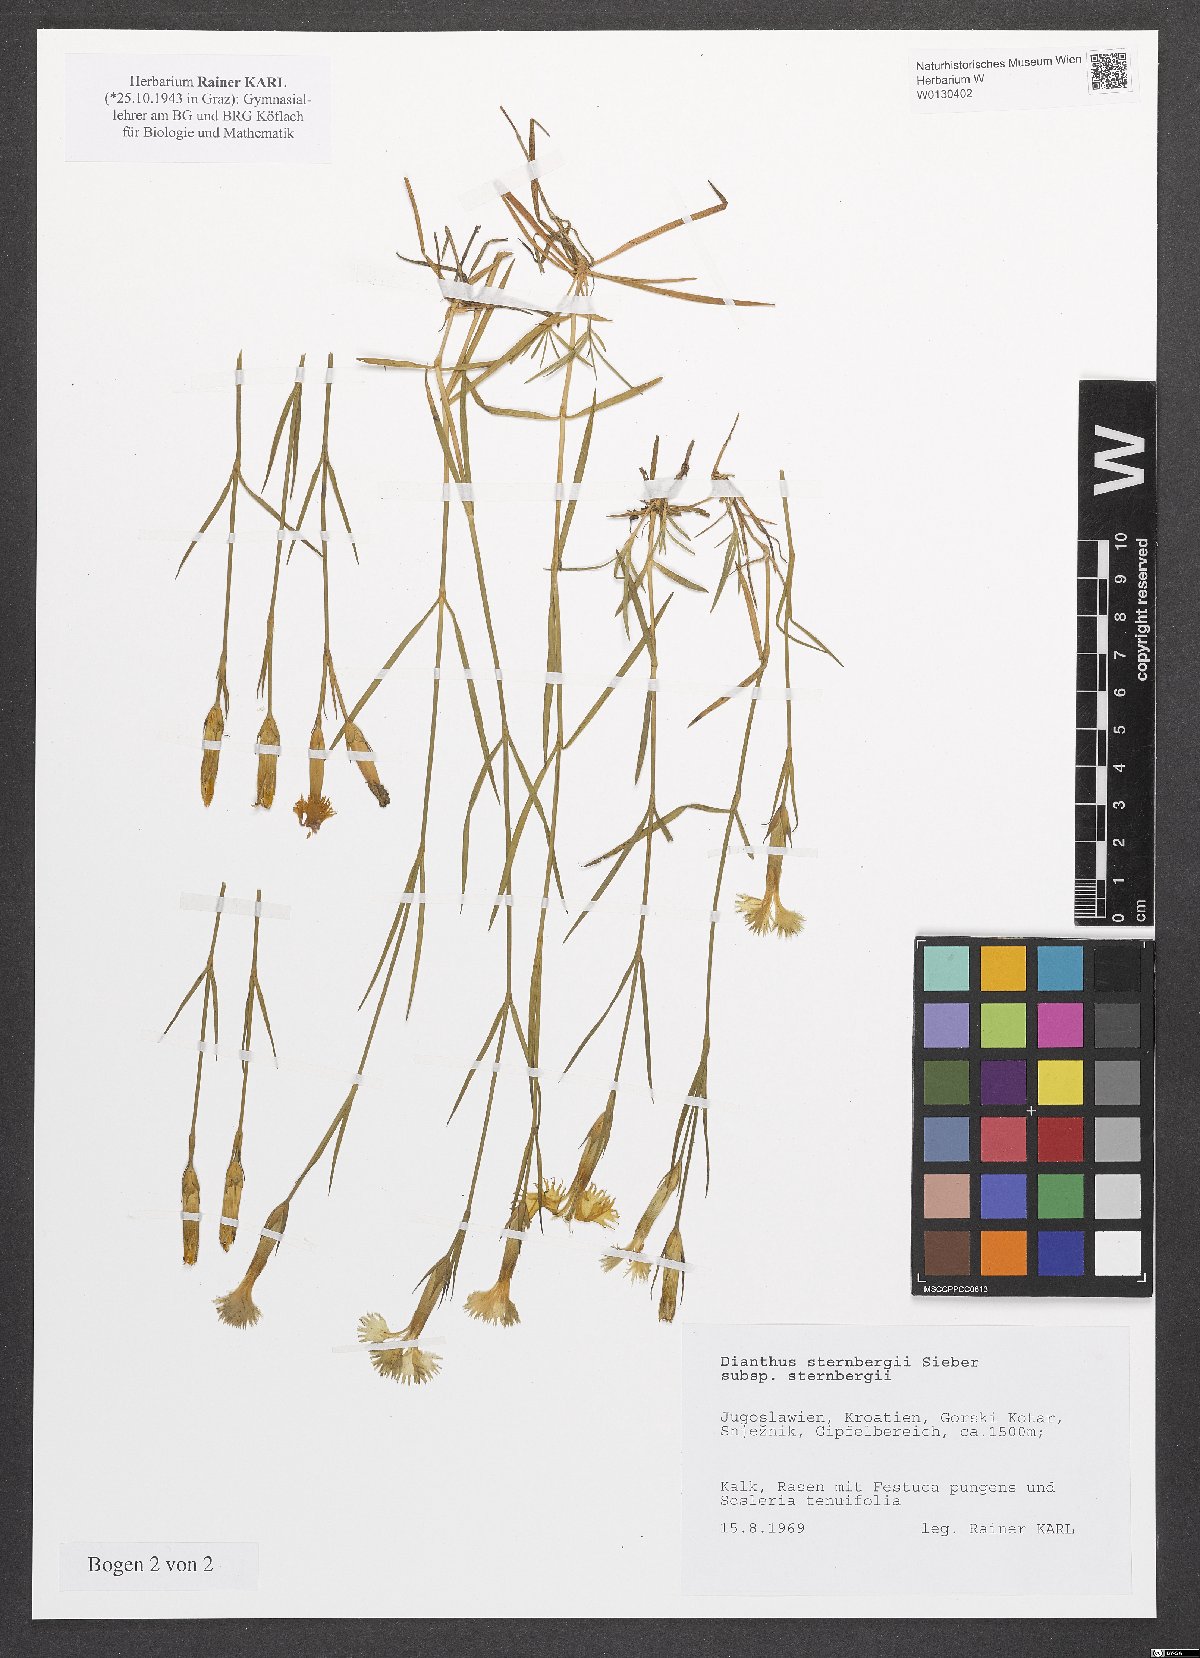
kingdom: Plantae
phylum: Tracheophyta
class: Magnoliopsida
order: Caryophyllales
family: Caryophyllaceae
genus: Dianthus
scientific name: Dianthus sternbergii
